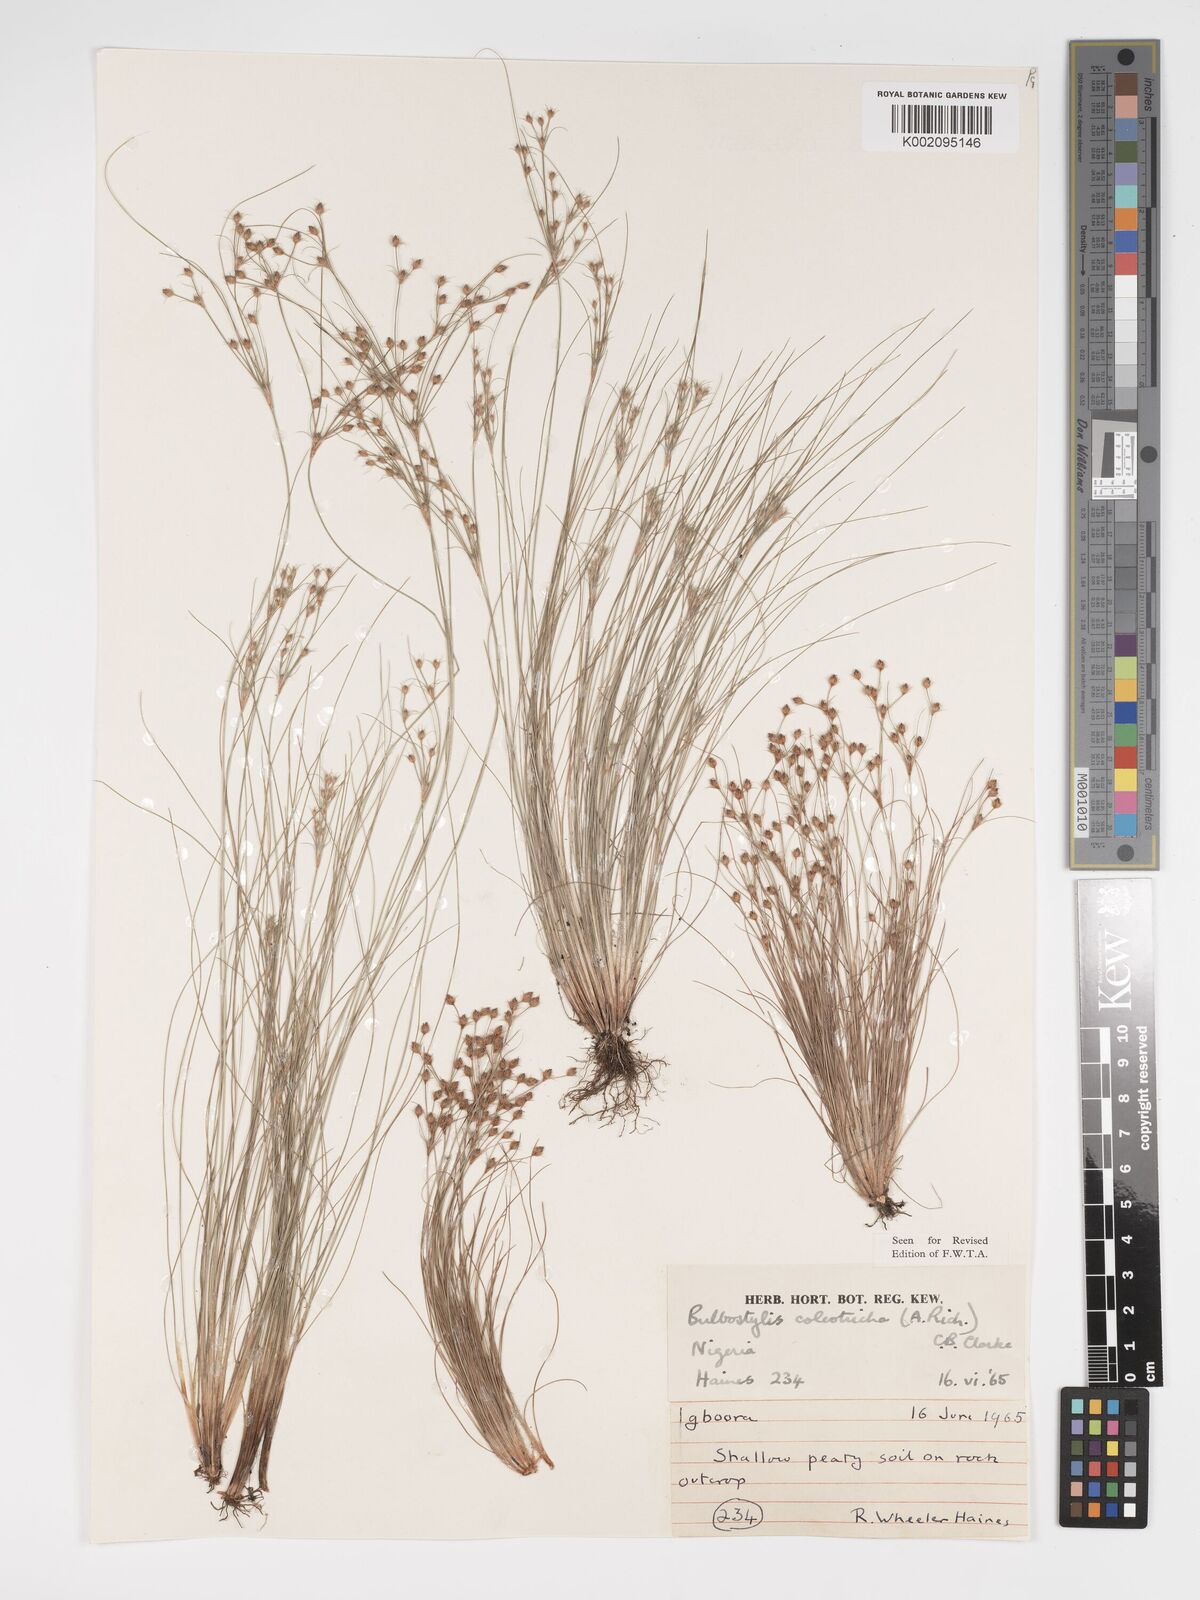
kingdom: Plantae
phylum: Tracheophyta
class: Liliopsida
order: Poales
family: Cyperaceae
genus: Bulbostylis
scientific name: Bulbostylis coleotricha
